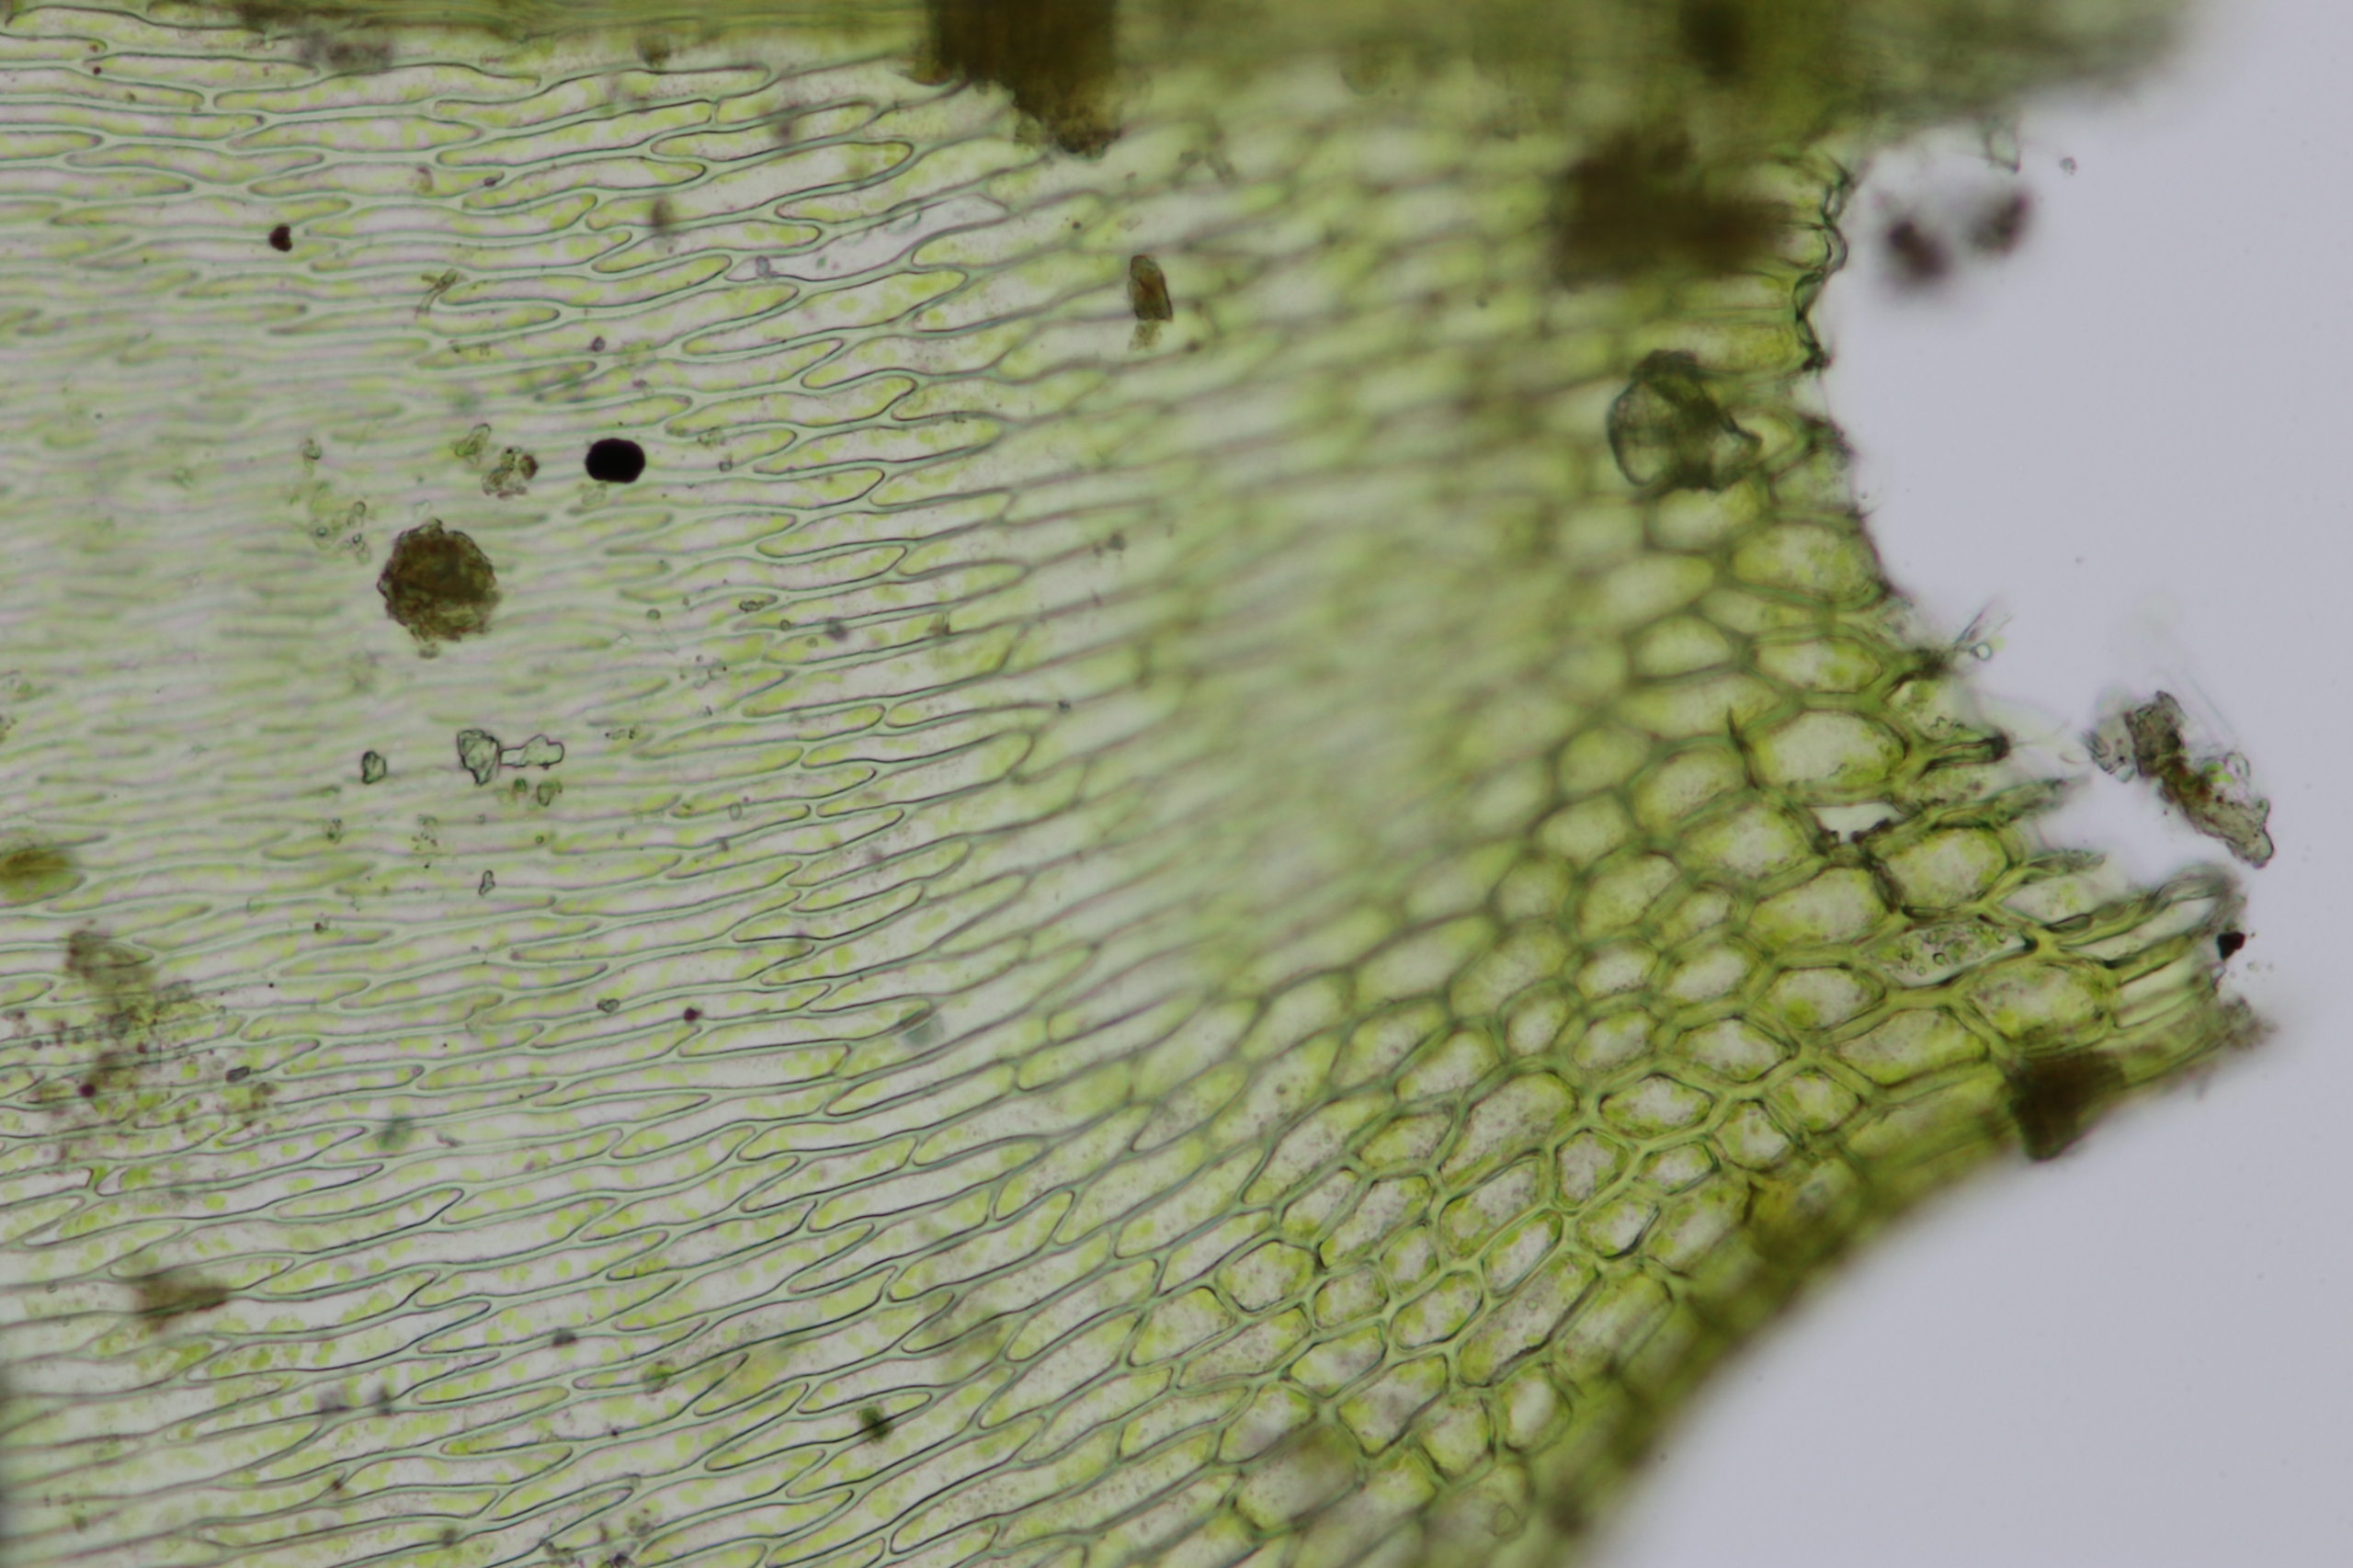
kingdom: Plantae
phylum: Bryophyta
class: Bryopsida
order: Hypnales
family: Brachytheciaceae
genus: Rhynchostegium
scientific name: Rhynchostegium megapolitanum
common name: Bredbladet langnæb
